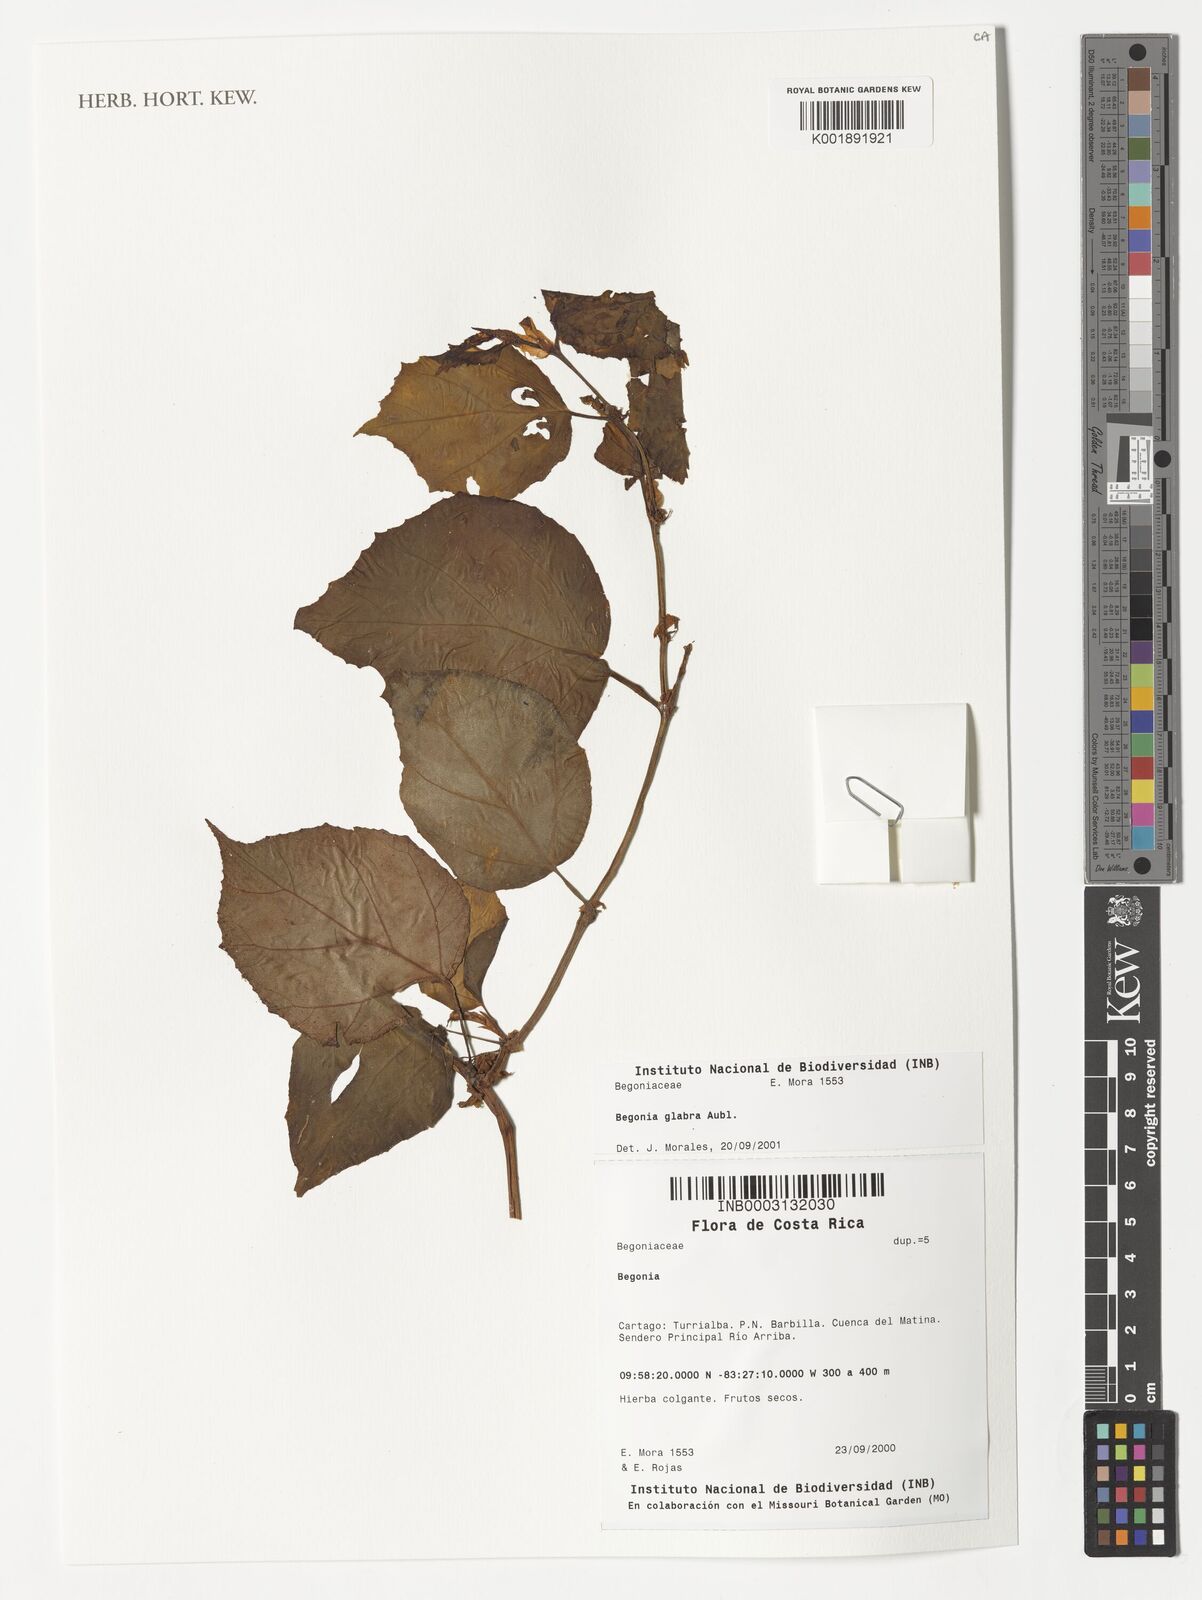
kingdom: Plantae
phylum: Tracheophyta
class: Magnoliopsida
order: Cucurbitales
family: Begoniaceae
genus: Begonia
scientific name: Begonia glabra
